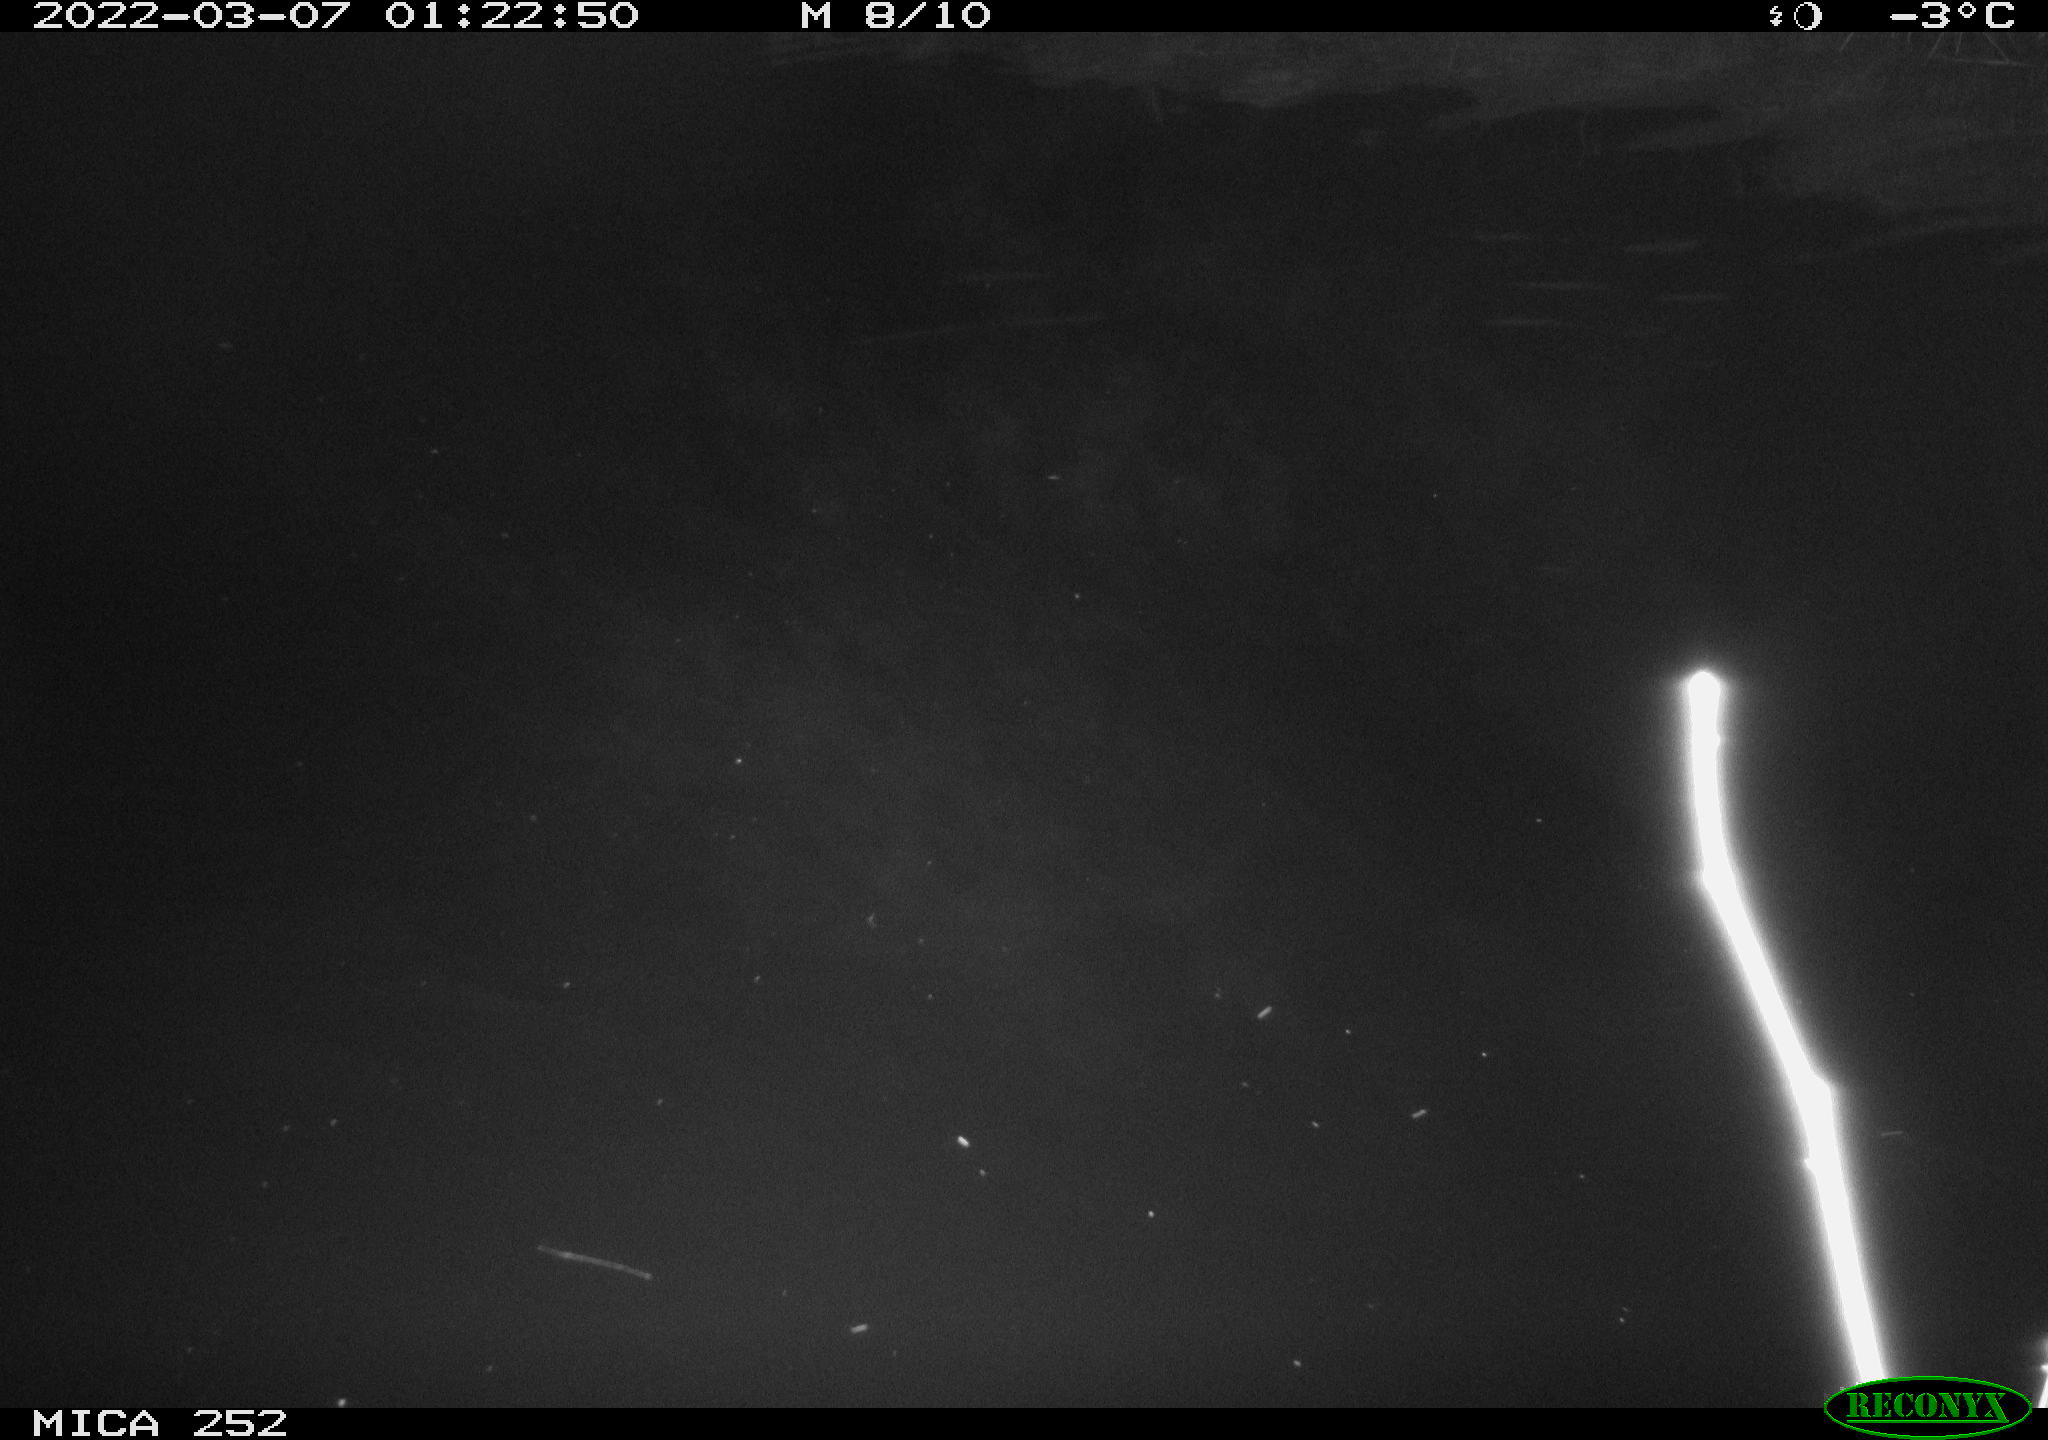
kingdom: Animalia
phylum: Chordata
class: Mammalia
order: Rodentia
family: Castoridae
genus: Castor
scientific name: Castor fiber
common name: Eurasian beaver
